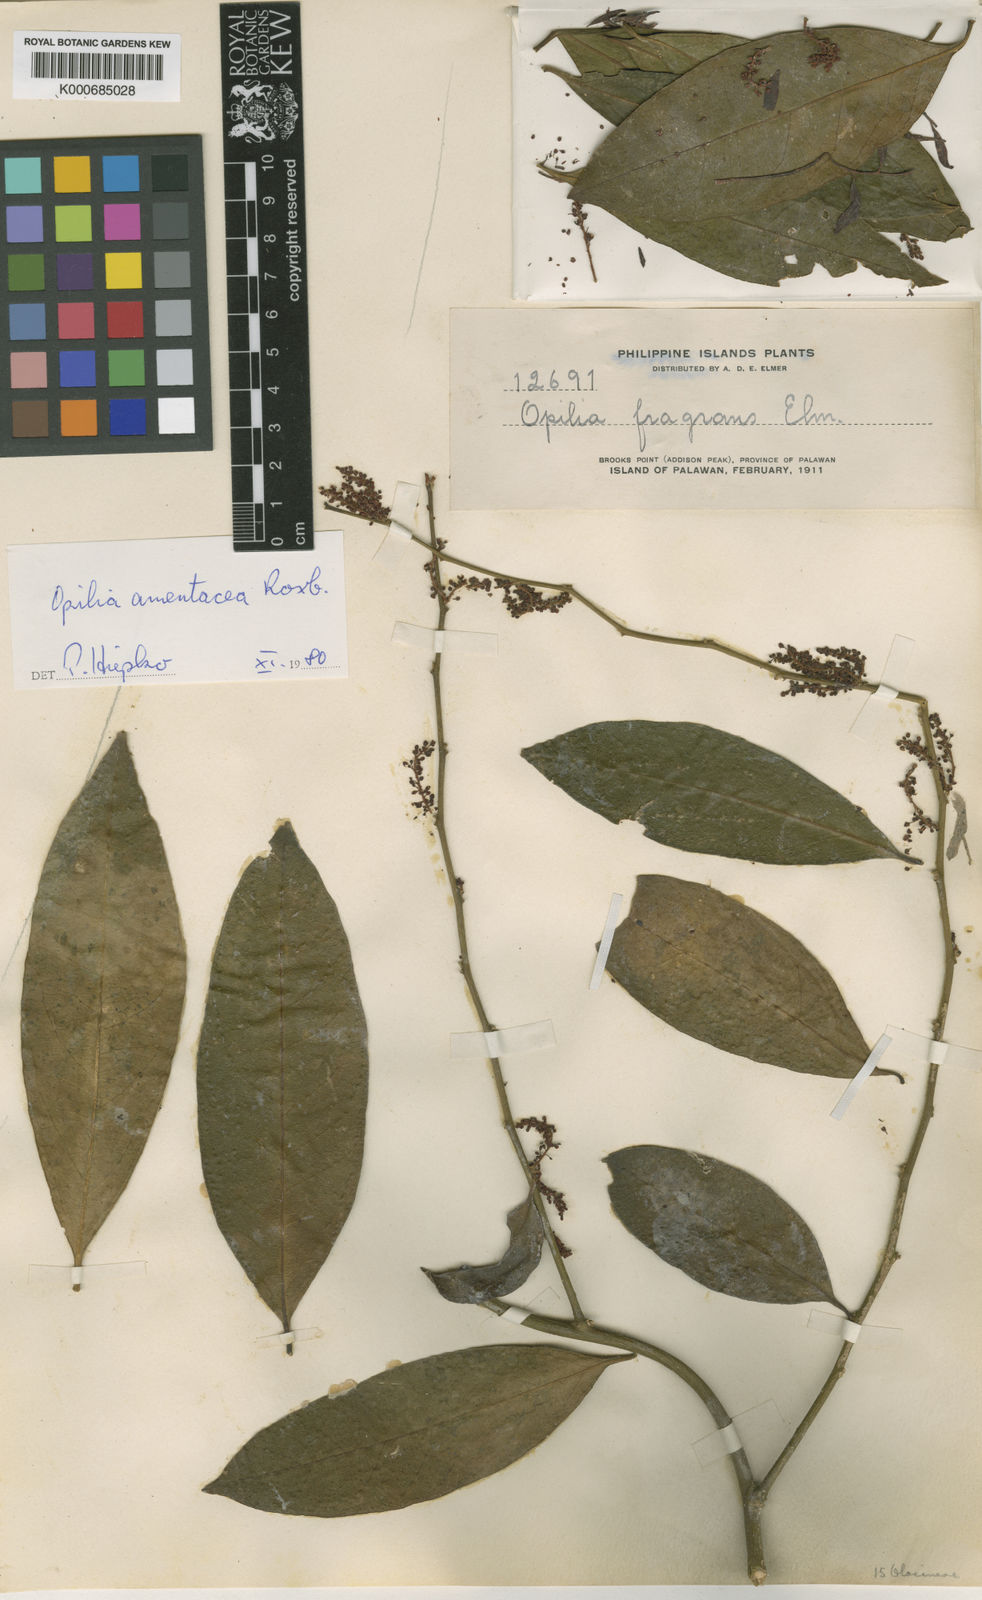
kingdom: Plantae
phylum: Tracheophyta
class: Magnoliopsida
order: Santalales
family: Opiliaceae
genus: Opilia
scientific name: Opilia amentacea
